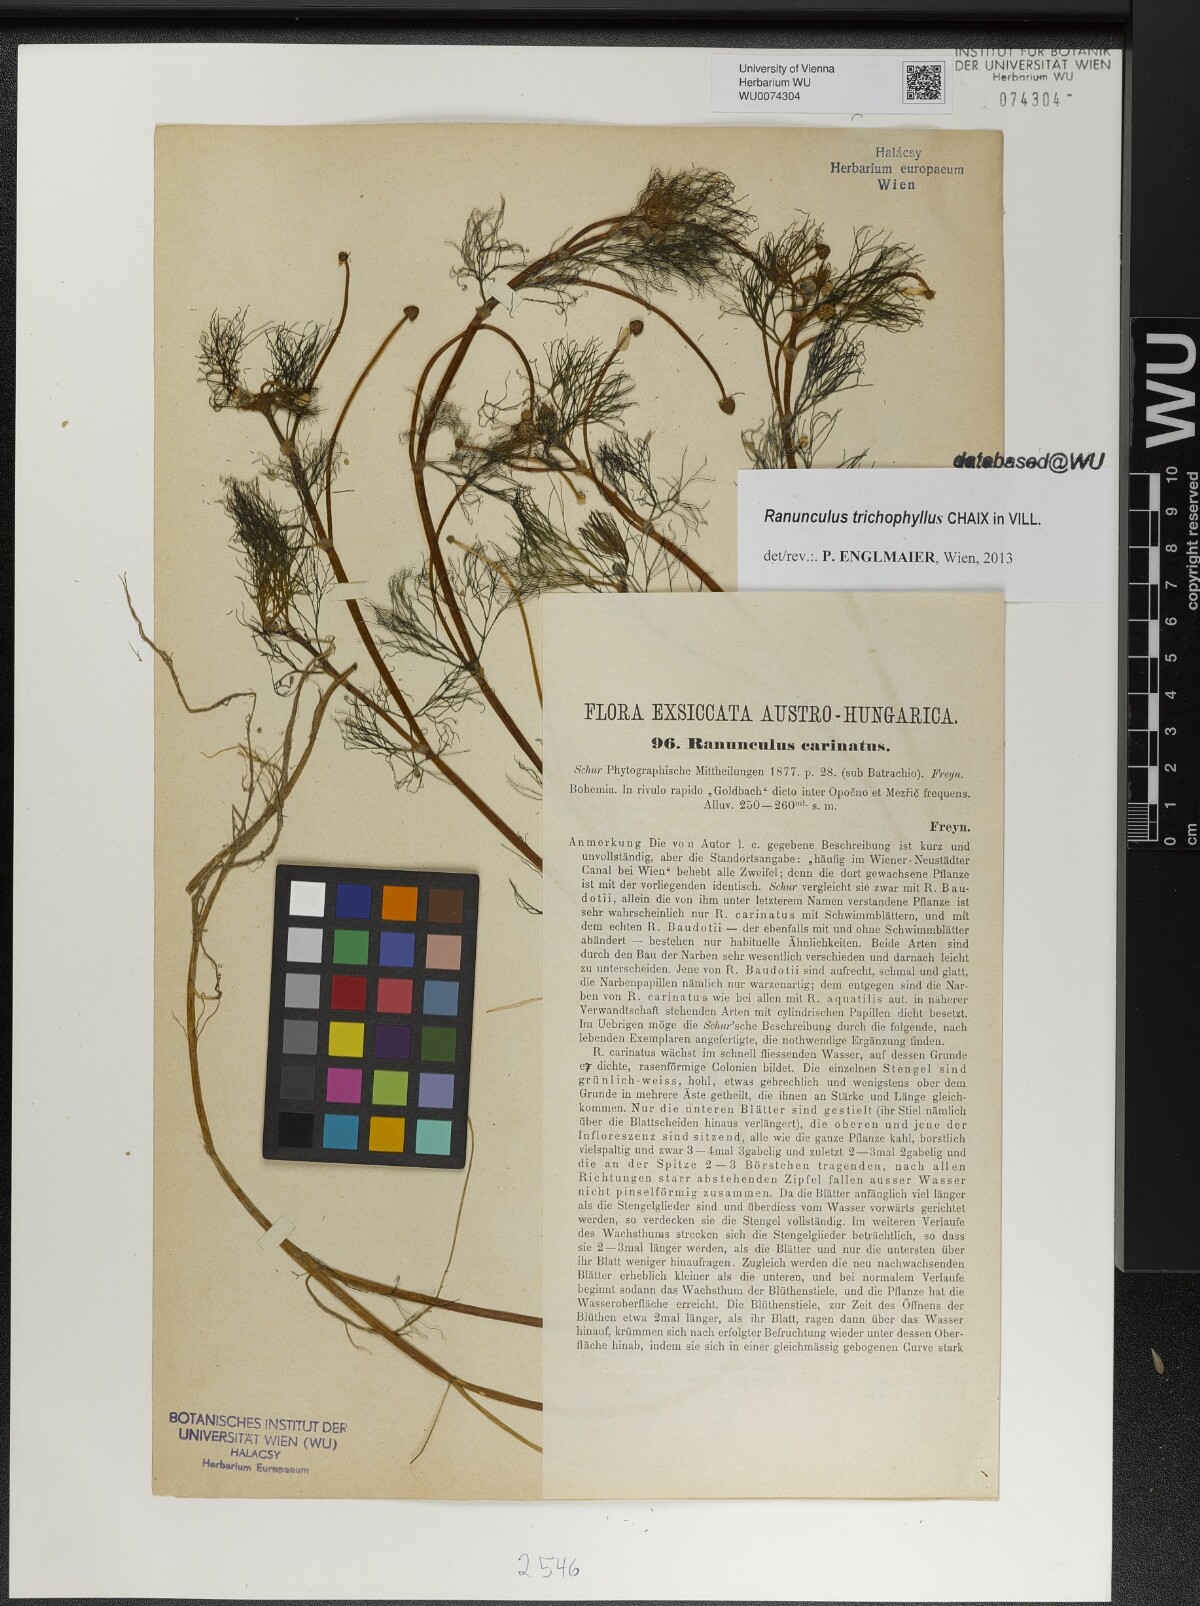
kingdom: Plantae
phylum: Tracheophyta
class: Magnoliopsida
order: Ranunculales
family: Ranunculaceae
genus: Ranunculus
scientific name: Ranunculus trichophyllus
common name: Thread-leaved water-crowfoot
